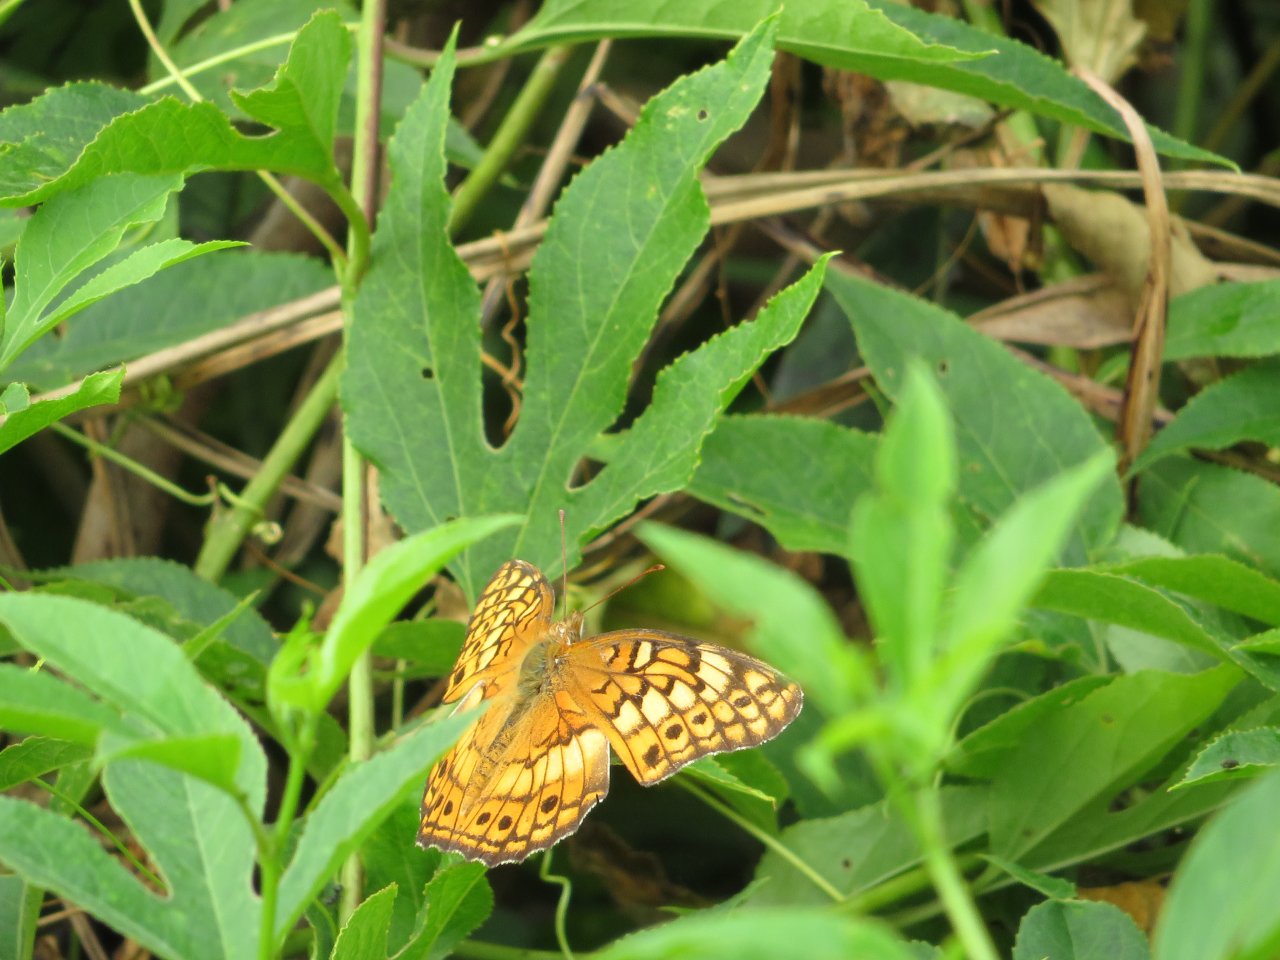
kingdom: Animalia
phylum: Arthropoda
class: Insecta
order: Lepidoptera
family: Nymphalidae
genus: Euptoieta
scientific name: Euptoieta claudia
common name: Variegated Fritillary
